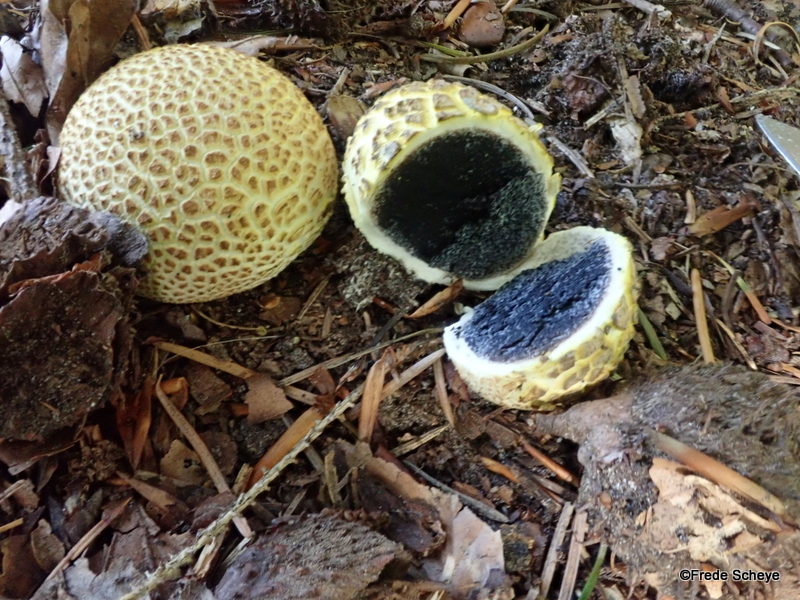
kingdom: Fungi
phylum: Basidiomycota
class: Agaricomycetes
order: Boletales
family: Sclerodermataceae
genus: Scleroderma
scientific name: Scleroderma citrinum
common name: almindelig bruskbold
